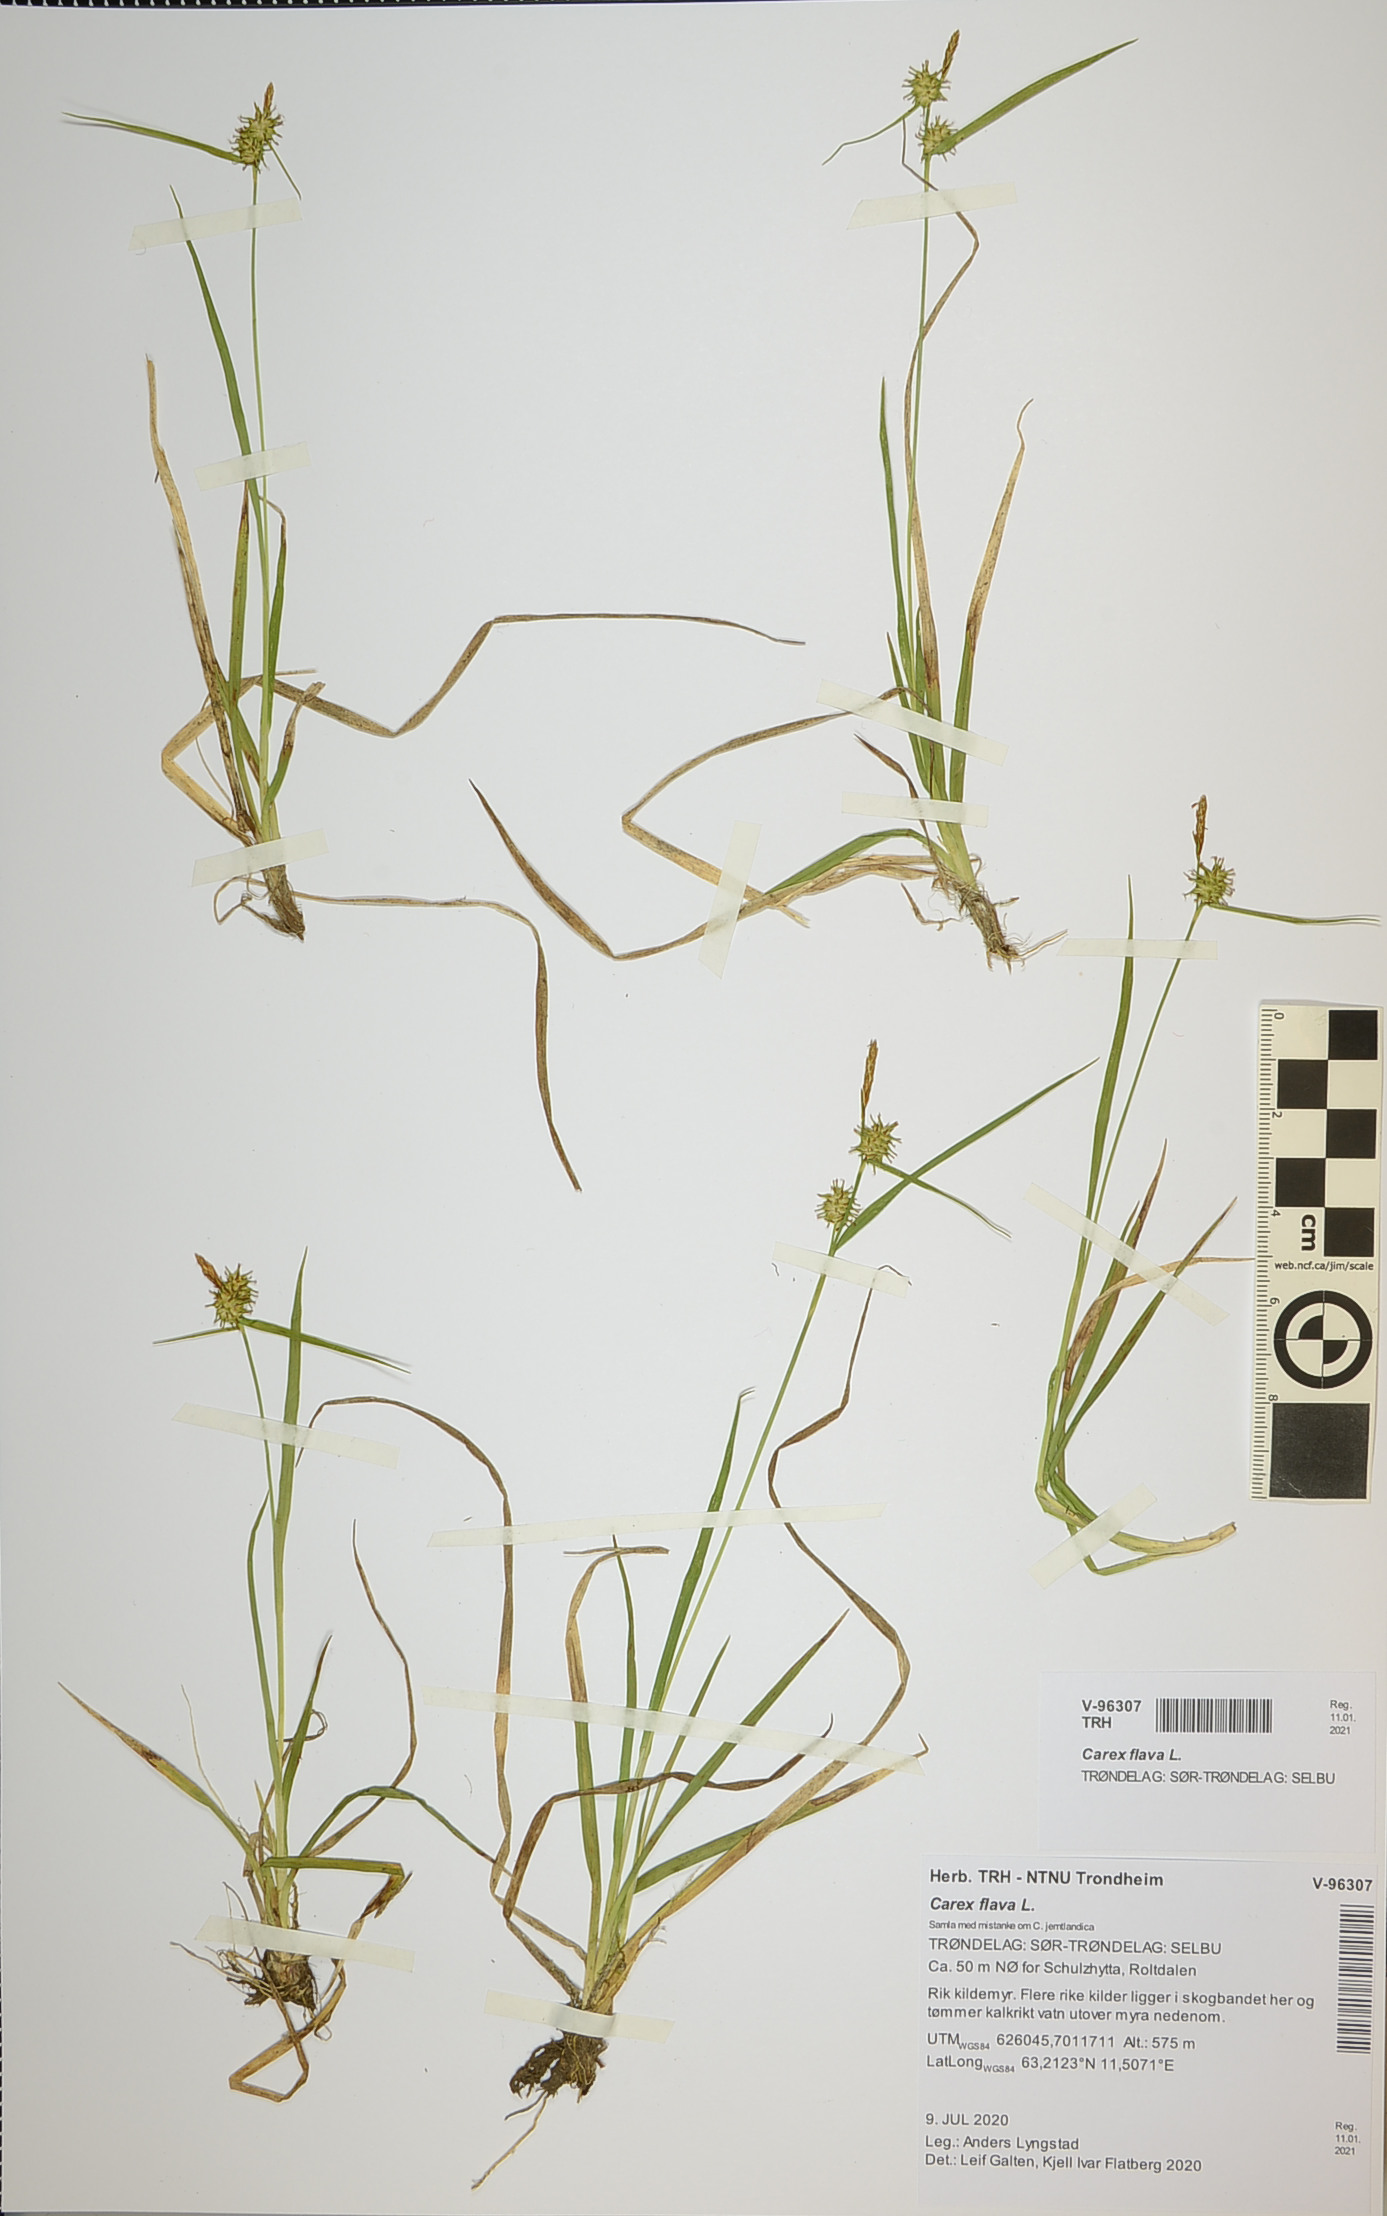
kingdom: Plantae
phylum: Tracheophyta
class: Liliopsida
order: Poales
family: Cyperaceae
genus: Carex
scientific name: Carex flava
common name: Large yellow-sedge
